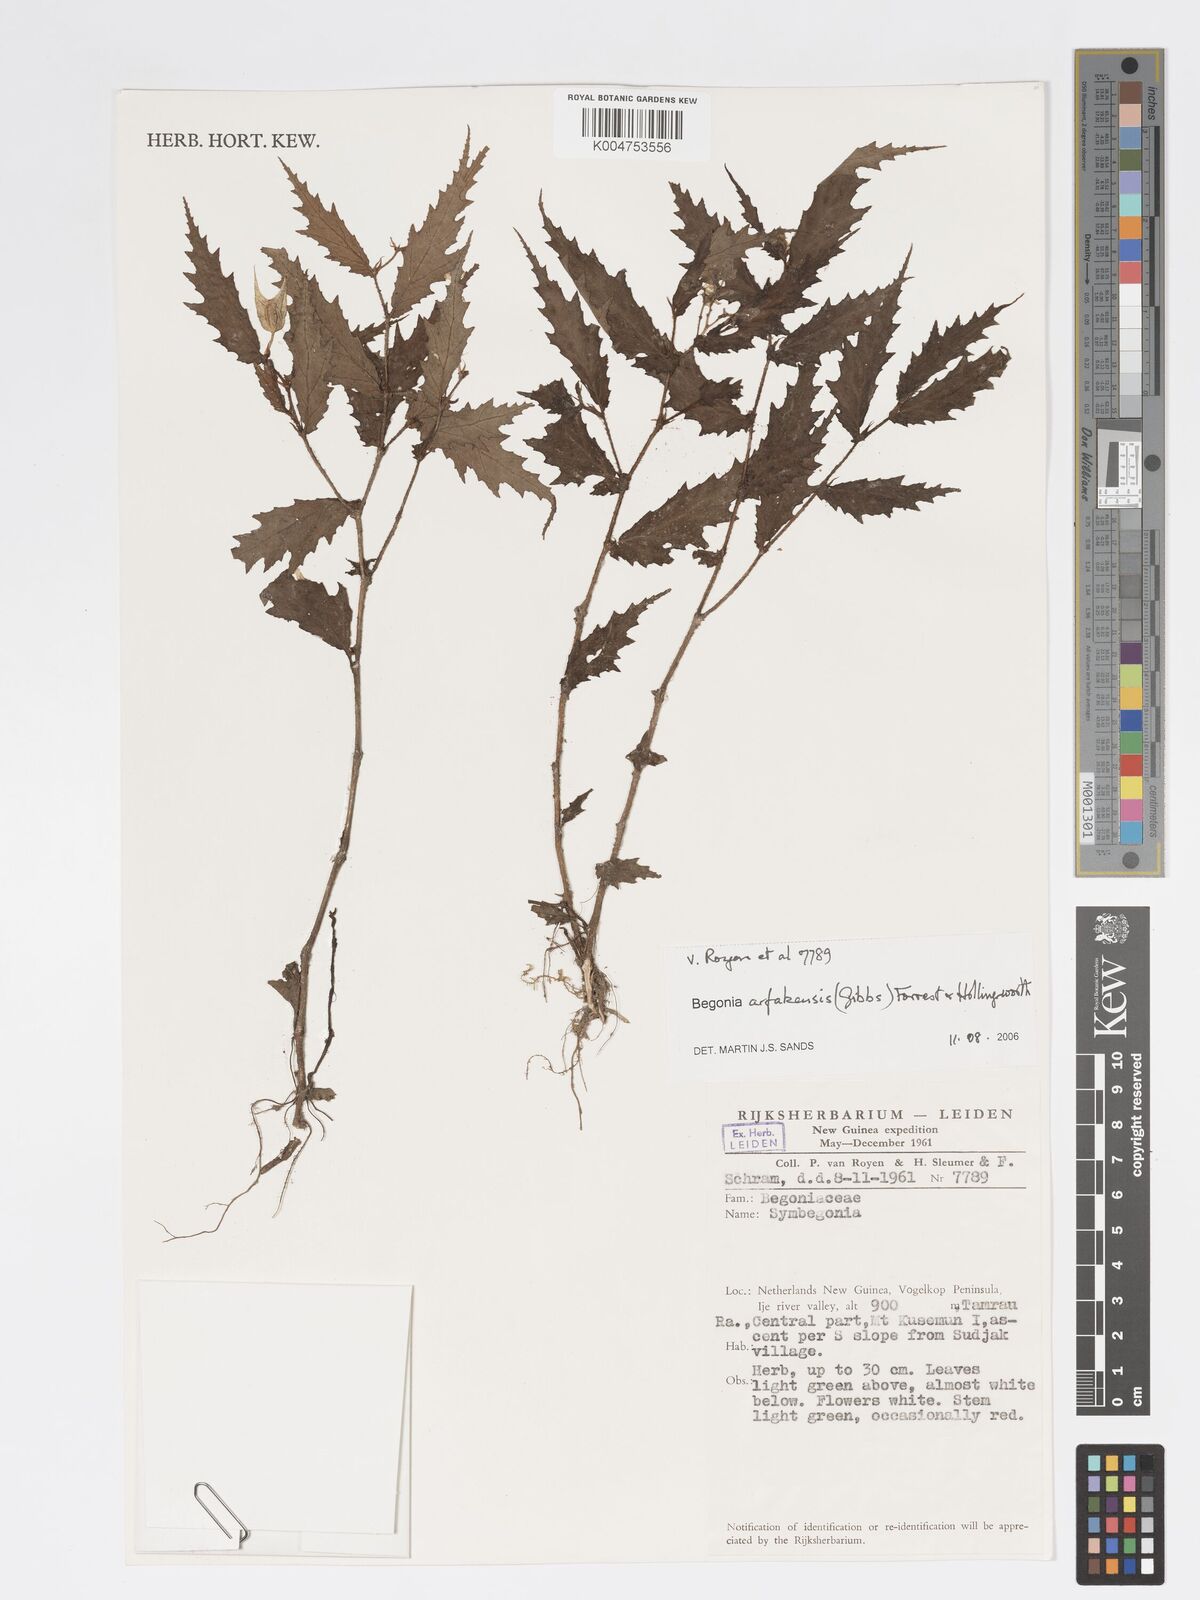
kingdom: Plantae
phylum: Tracheophyta
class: Magnoliopsida
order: Cucurbitales
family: Begoniaceae
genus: Begonia
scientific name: Begonia arfakensis
